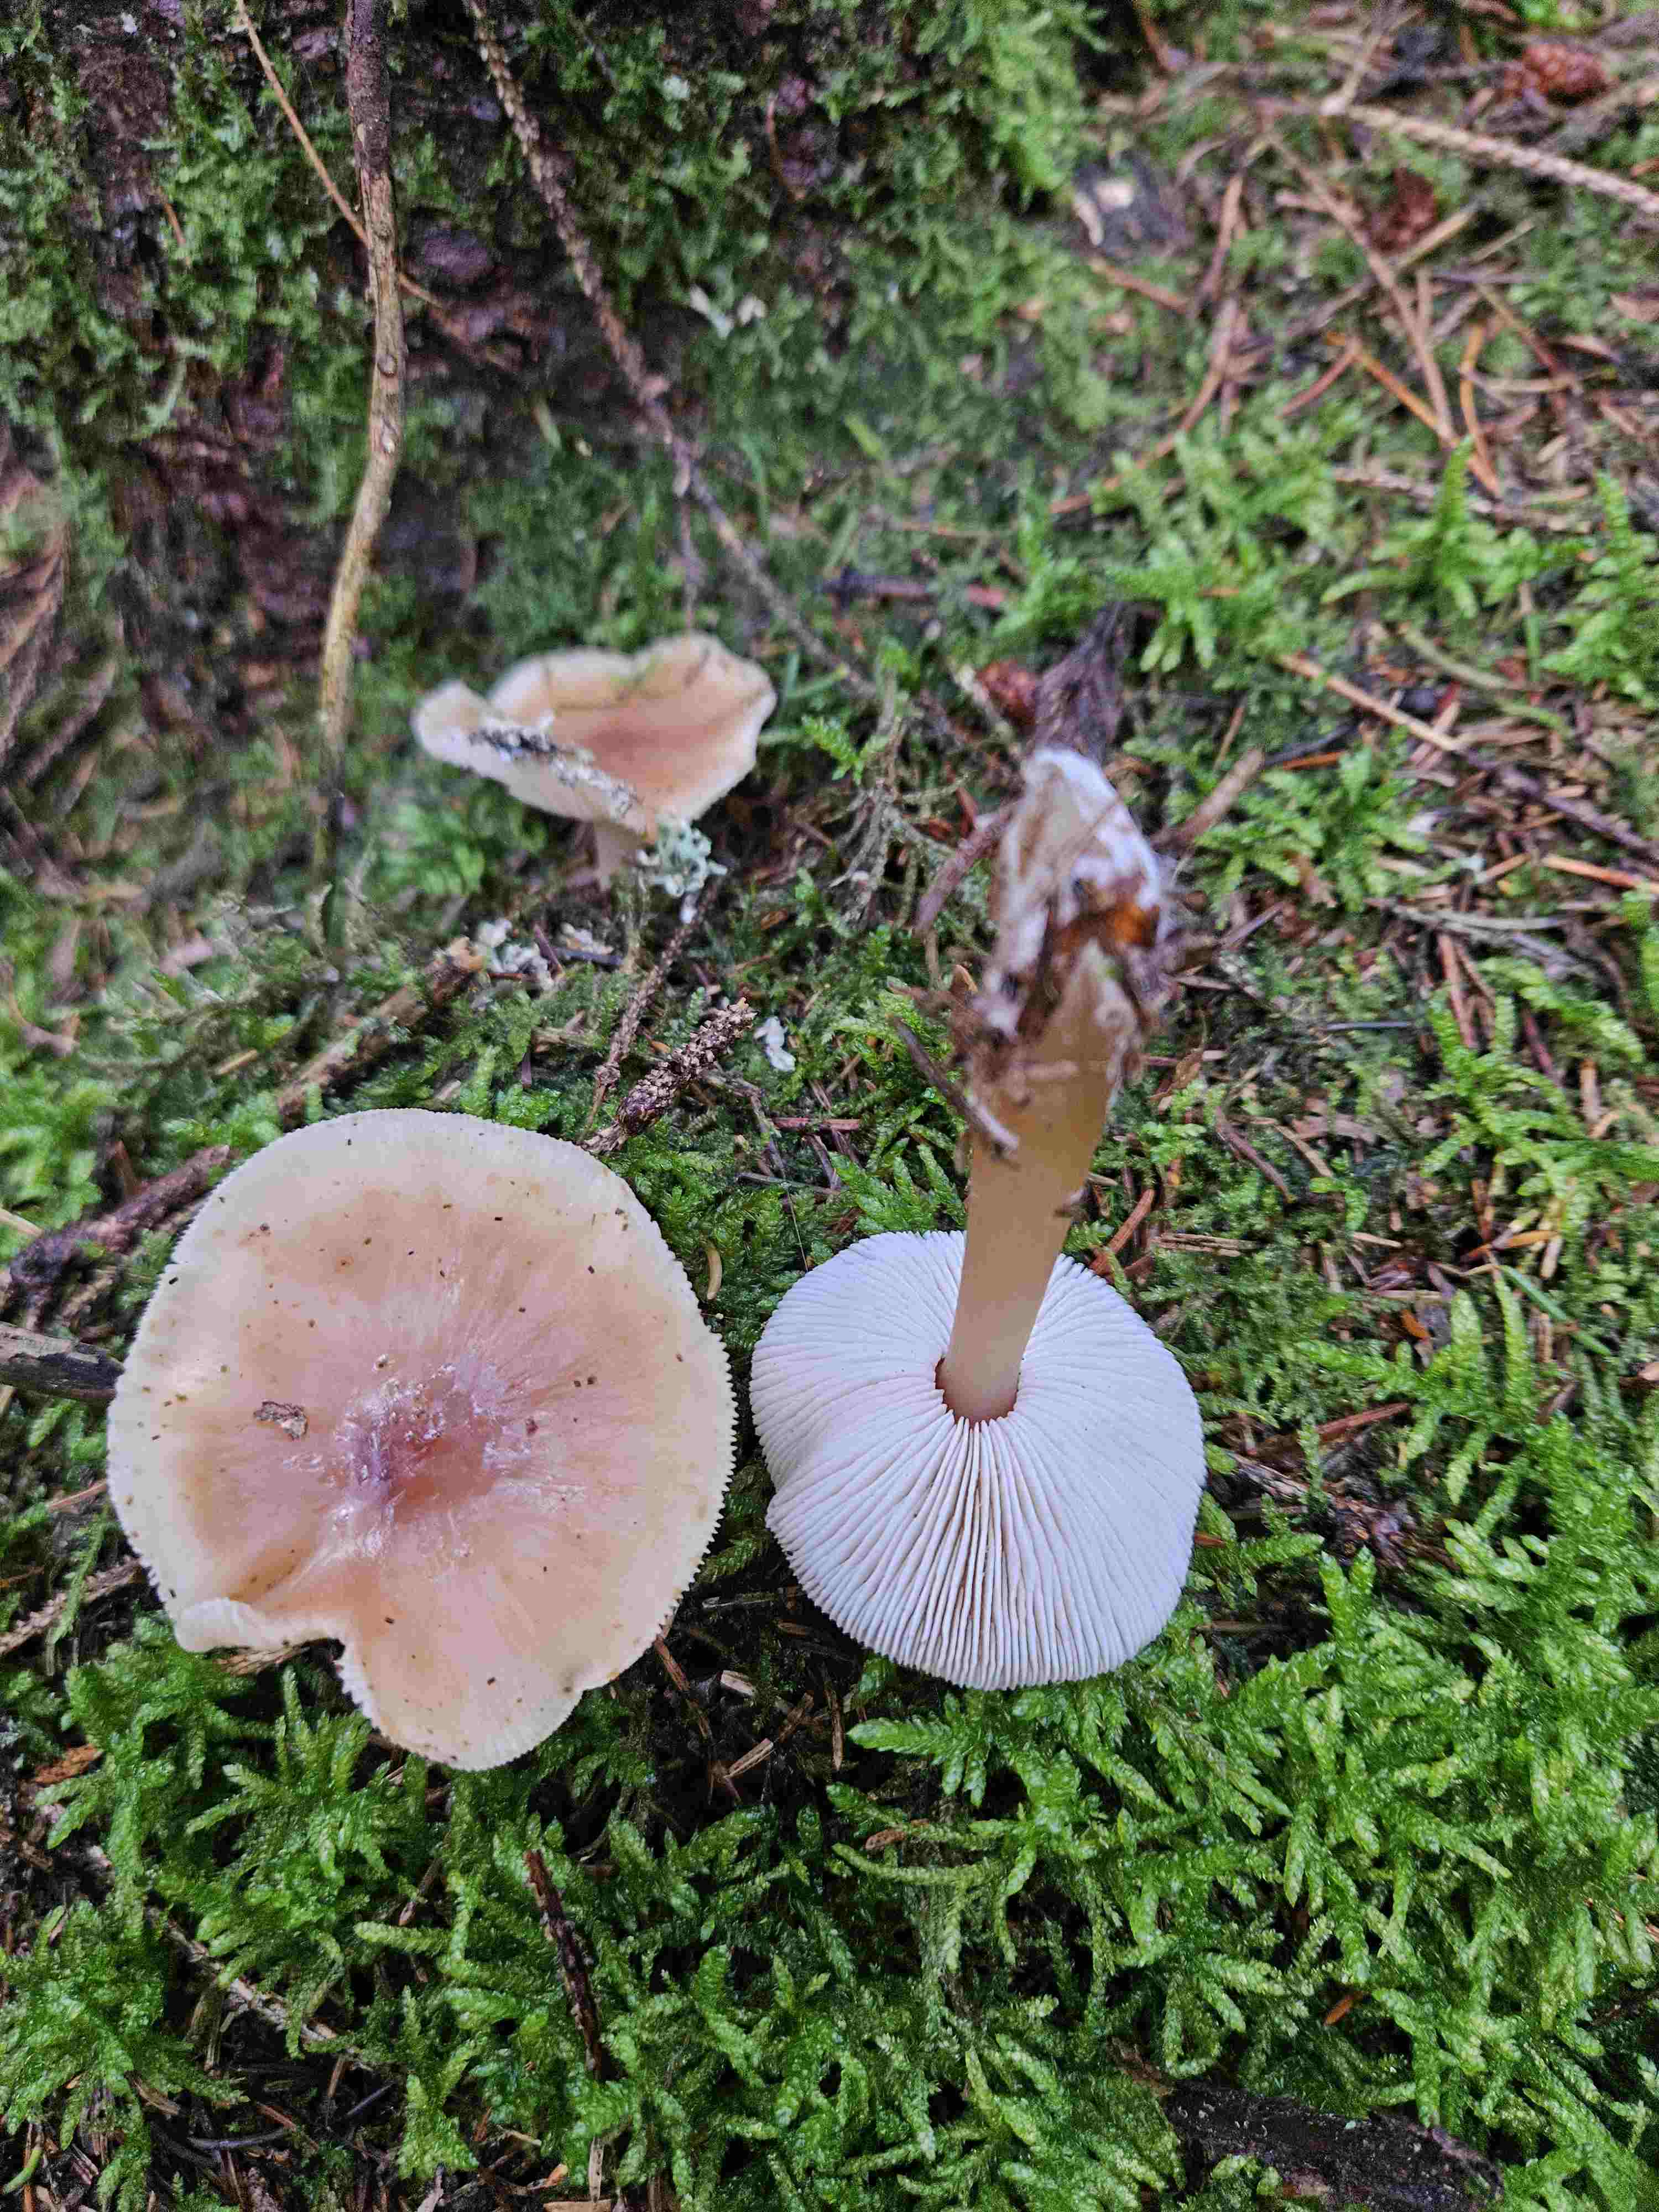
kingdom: Fungi
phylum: Basidiomycota
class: Agaricomycetes
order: Agaricales
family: Omphalotaceae
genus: Rhodocollybia
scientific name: Rhodocollybia butyracea
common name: keglestokket fladhat
